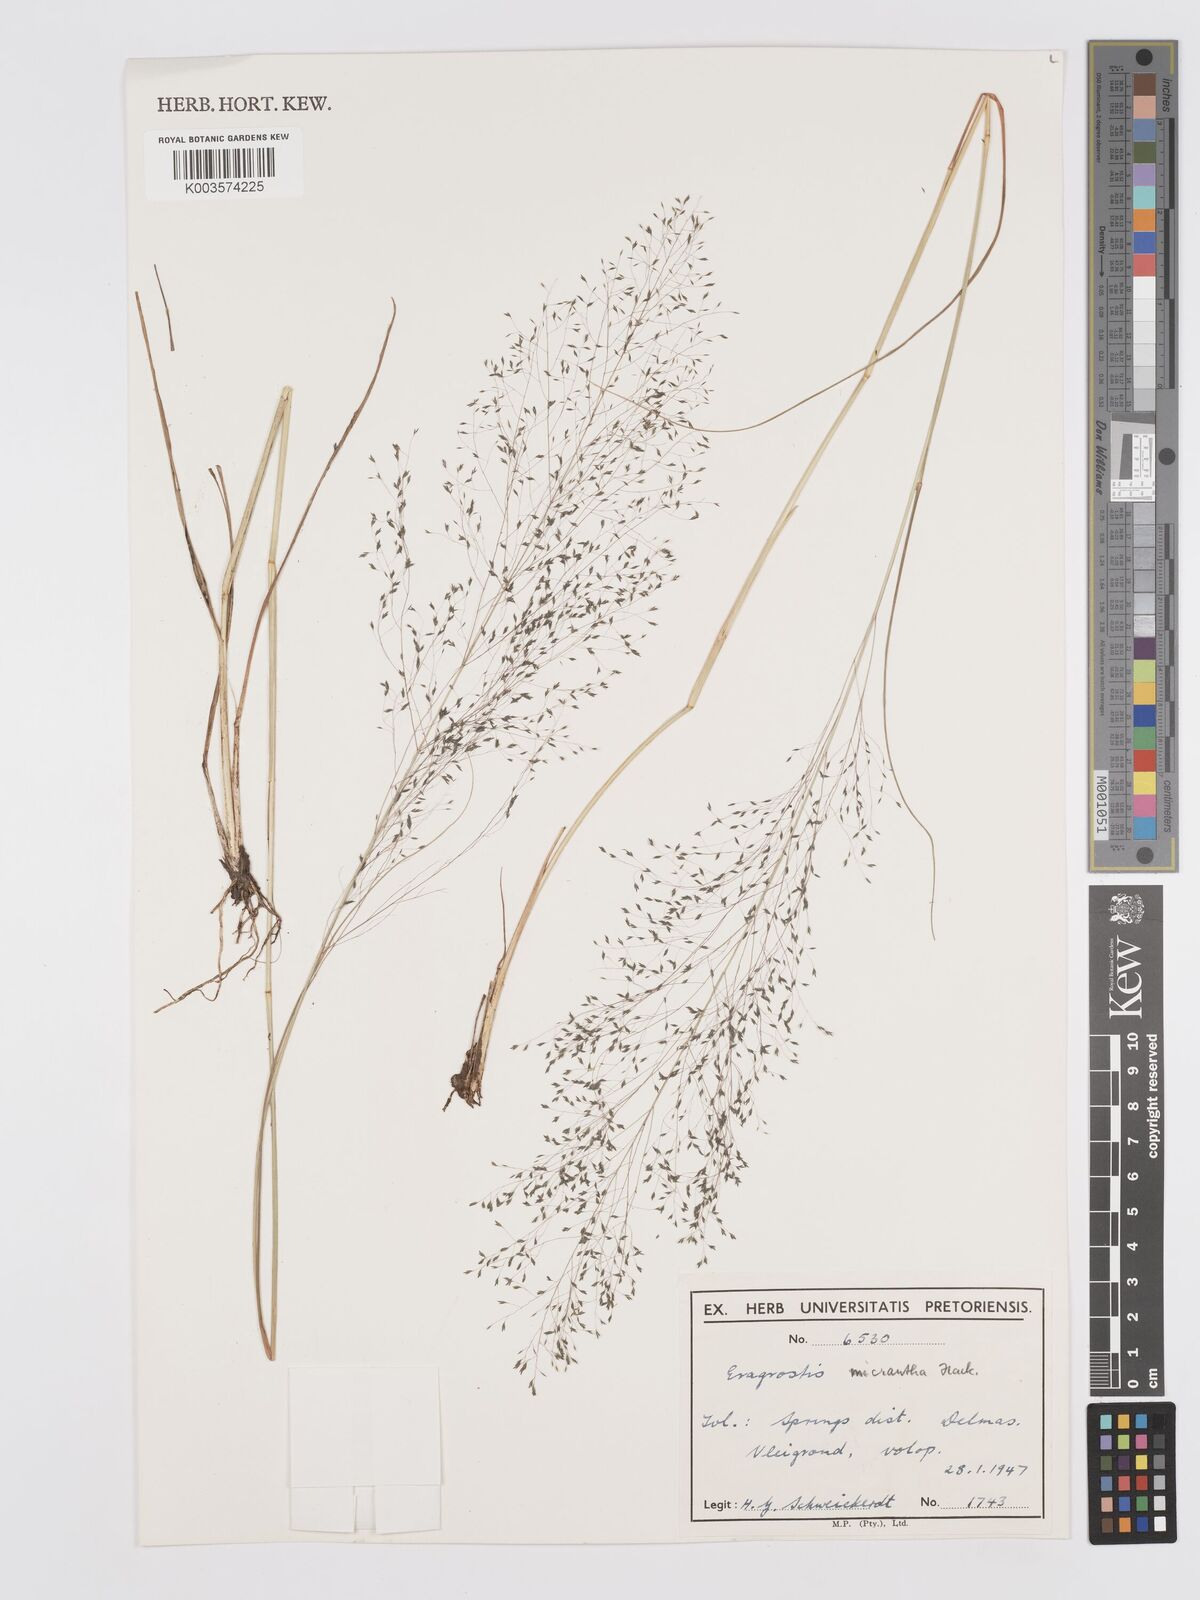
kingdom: Plantae
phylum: Tracheophyta
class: Liliopsida
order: Poales
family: Poaceae
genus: Eragrostis
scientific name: Eragrostis micrantha
